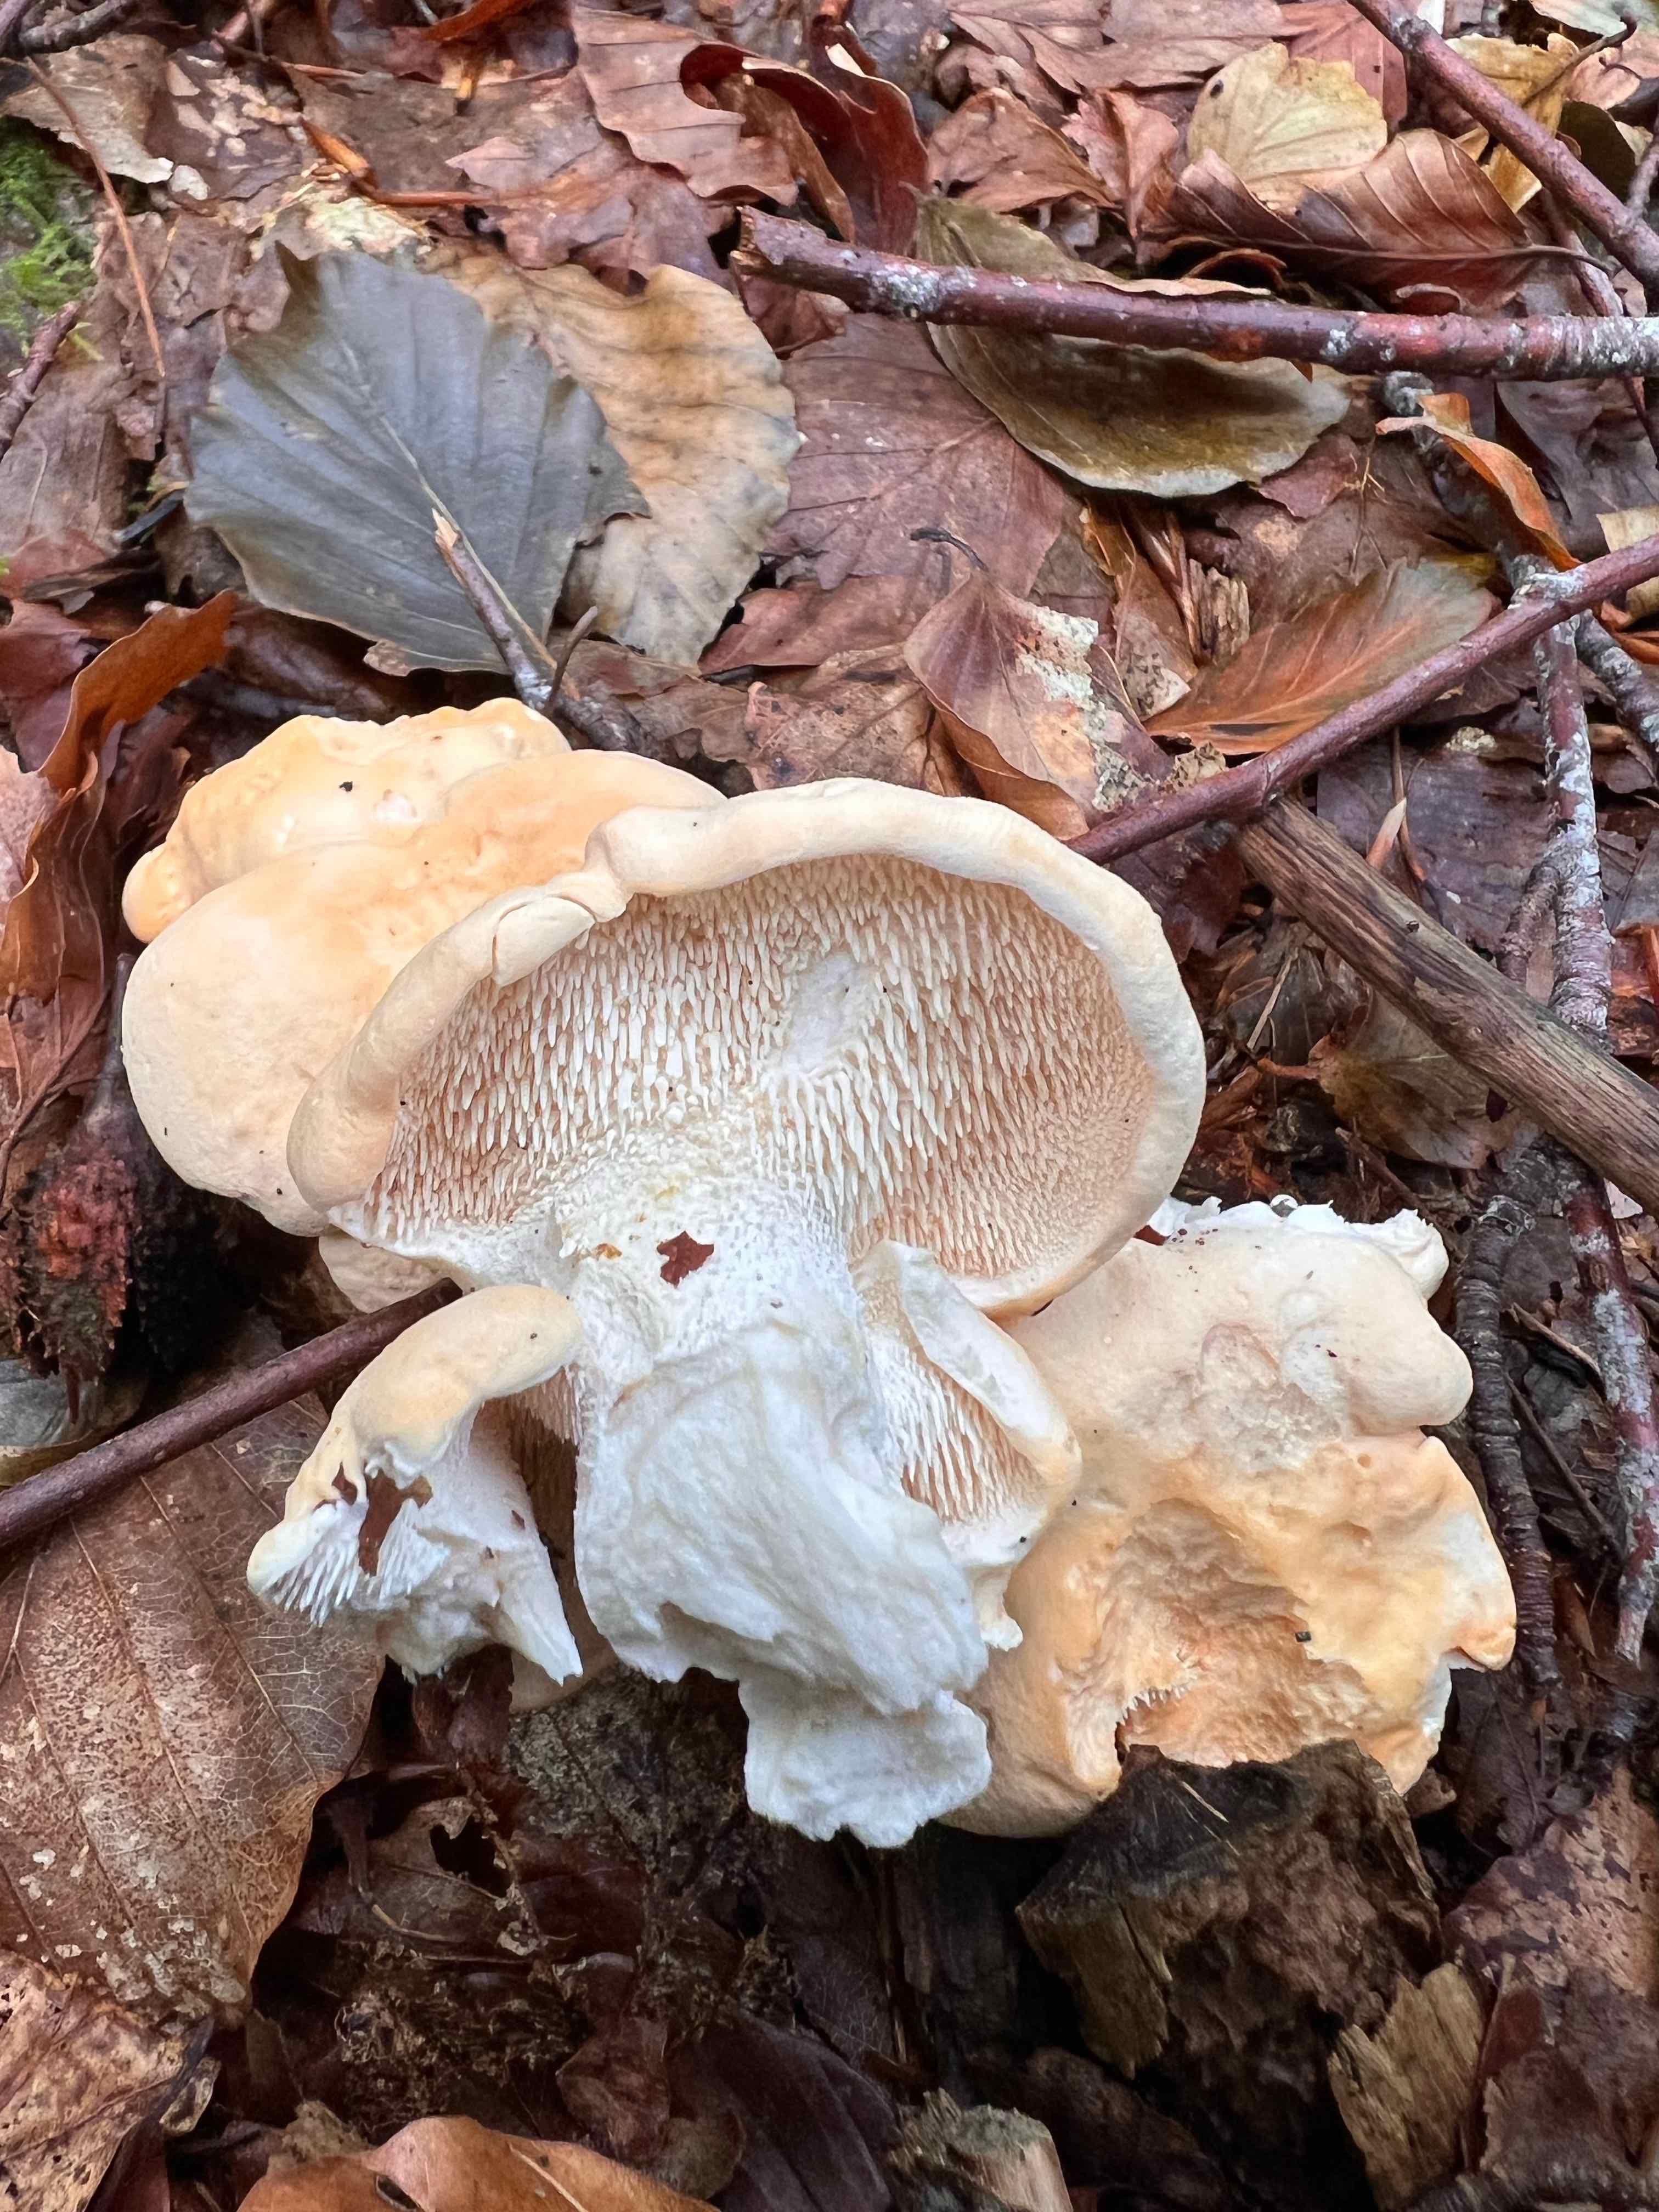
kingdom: Fungi
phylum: Basidiomycota
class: Agaricomycetes
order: Cantharellales
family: Hydnaceae
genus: Hydnum
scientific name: Hydnum repandum
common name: almindelig pigsvamp
